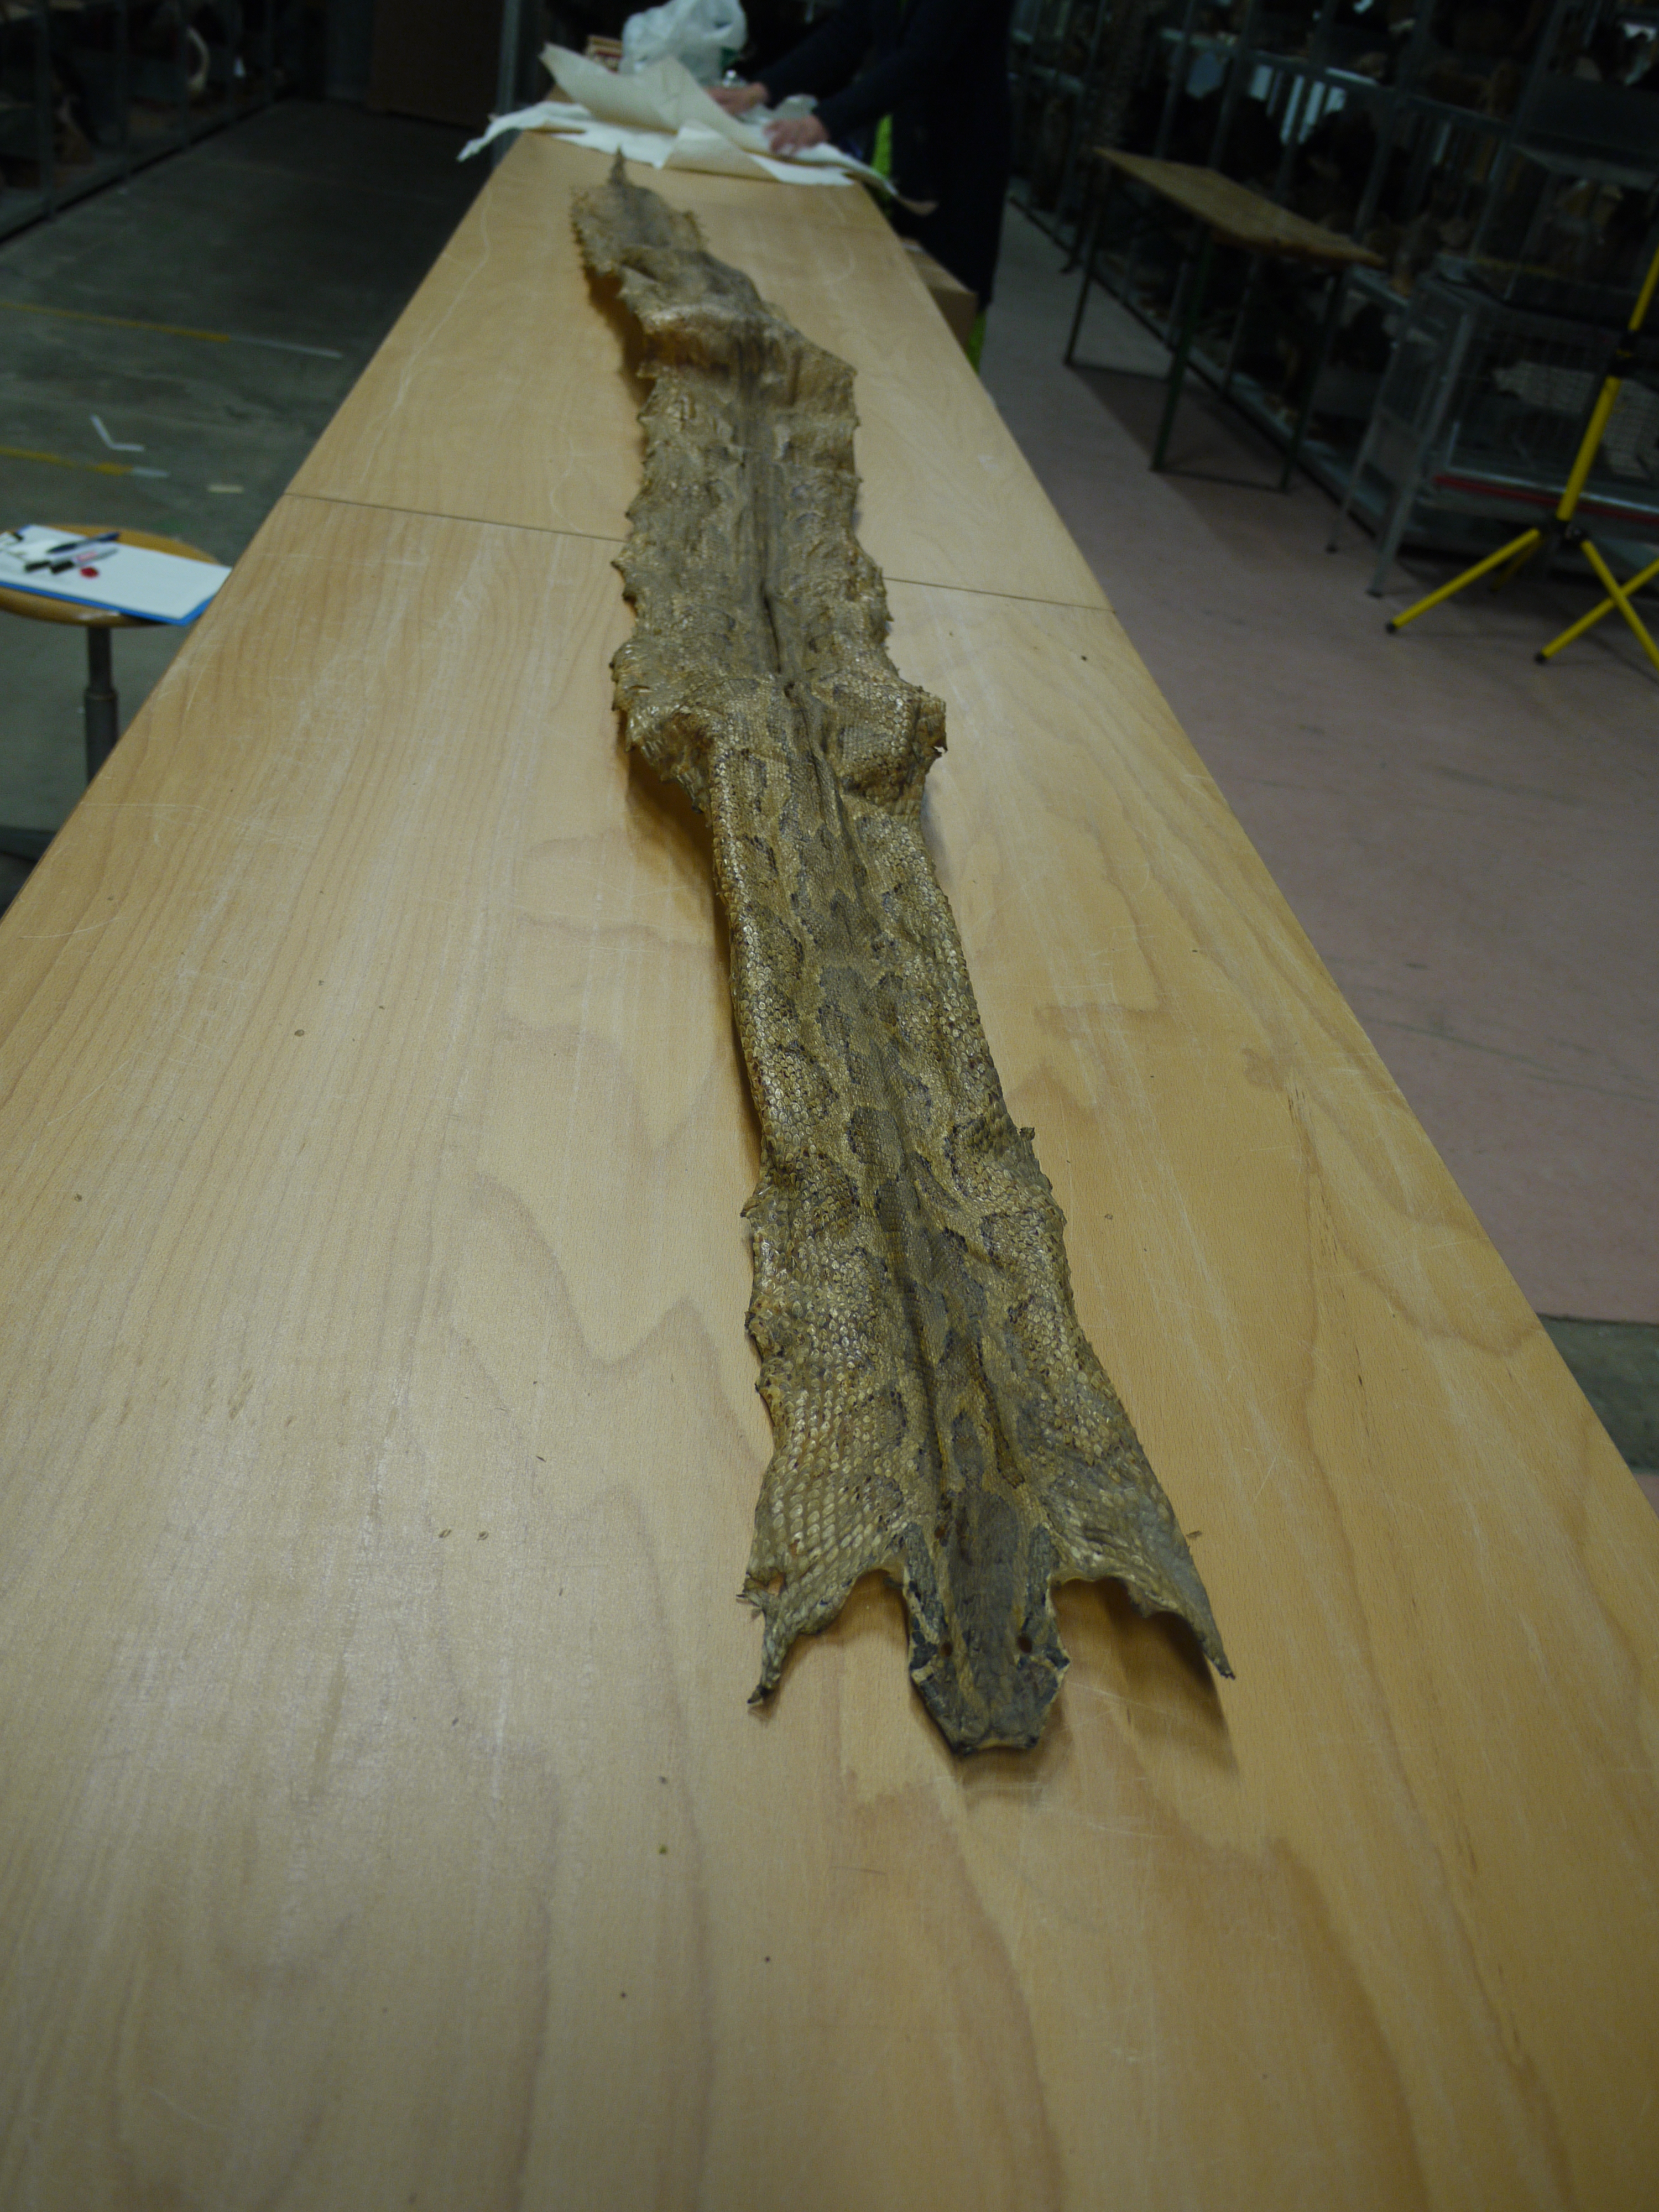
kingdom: Animalia
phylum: Chordata
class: Squamata
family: Pythonidae
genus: Python
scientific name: Python molurus
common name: Indian rock python
